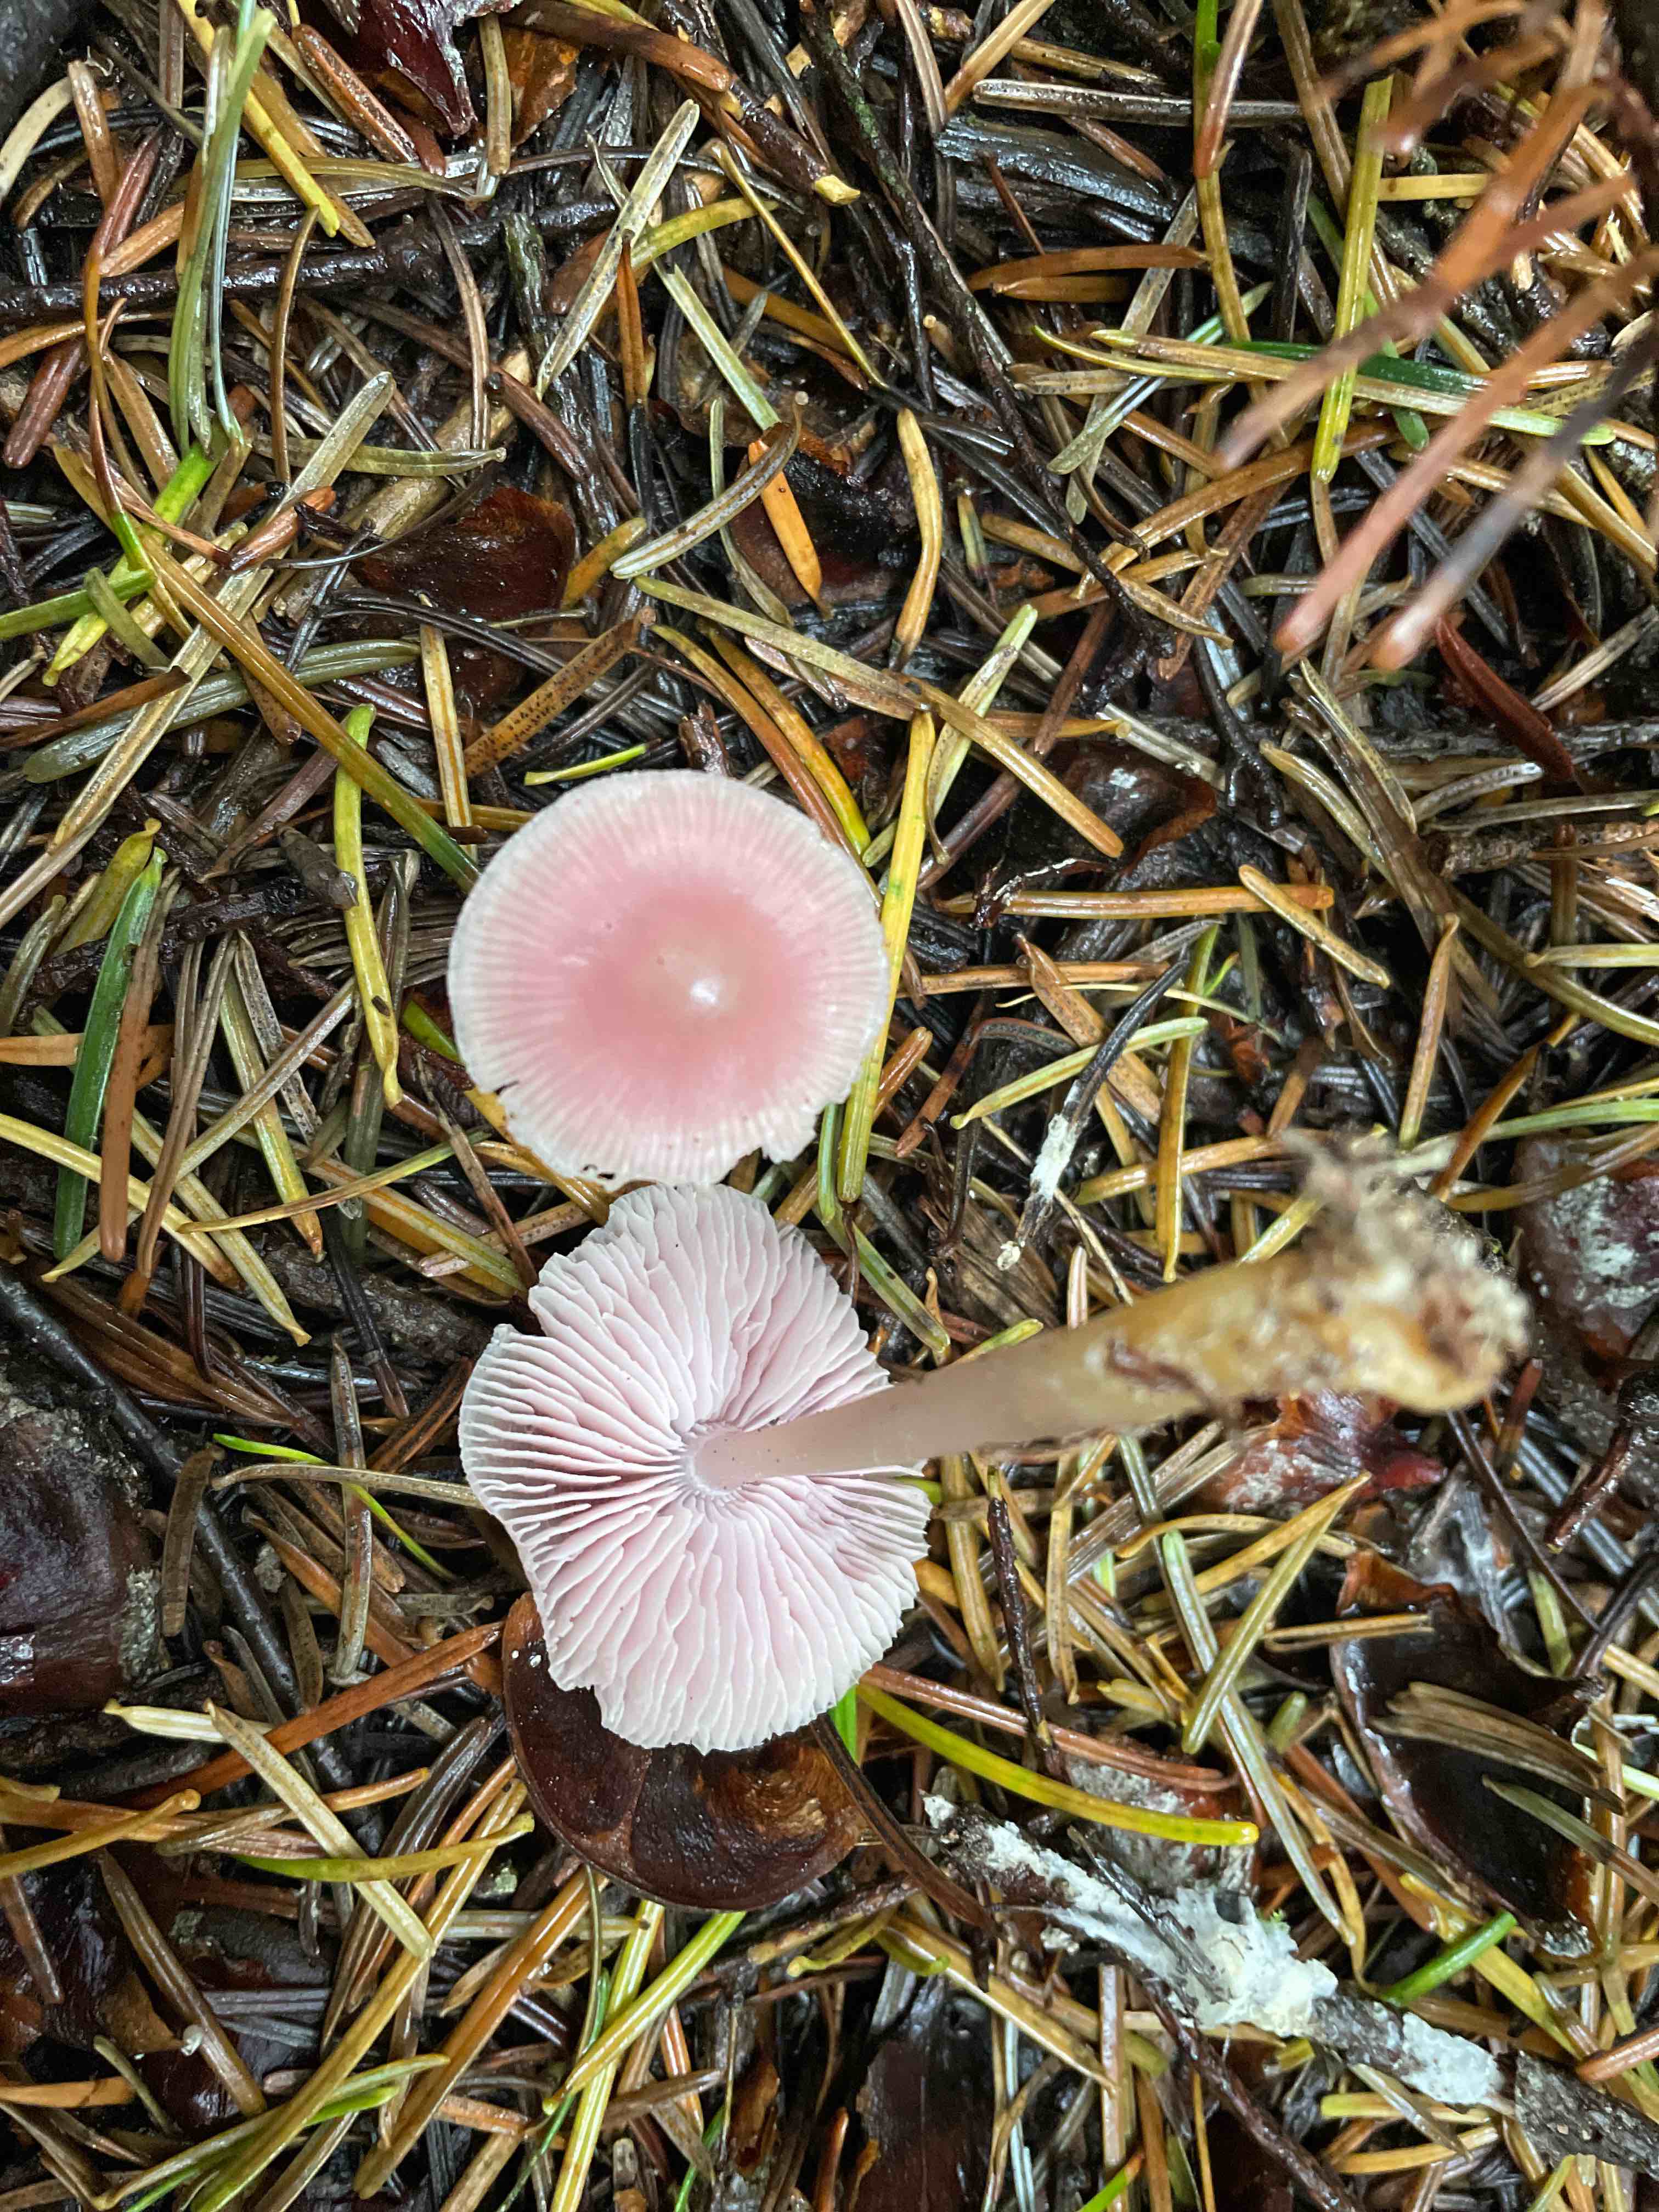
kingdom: Fungi
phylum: Basidiomycota
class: Agaricomycetes
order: Agaricales
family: Mycenaceae
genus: Mycena
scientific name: Mycena rosea
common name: rosa huesvamp
